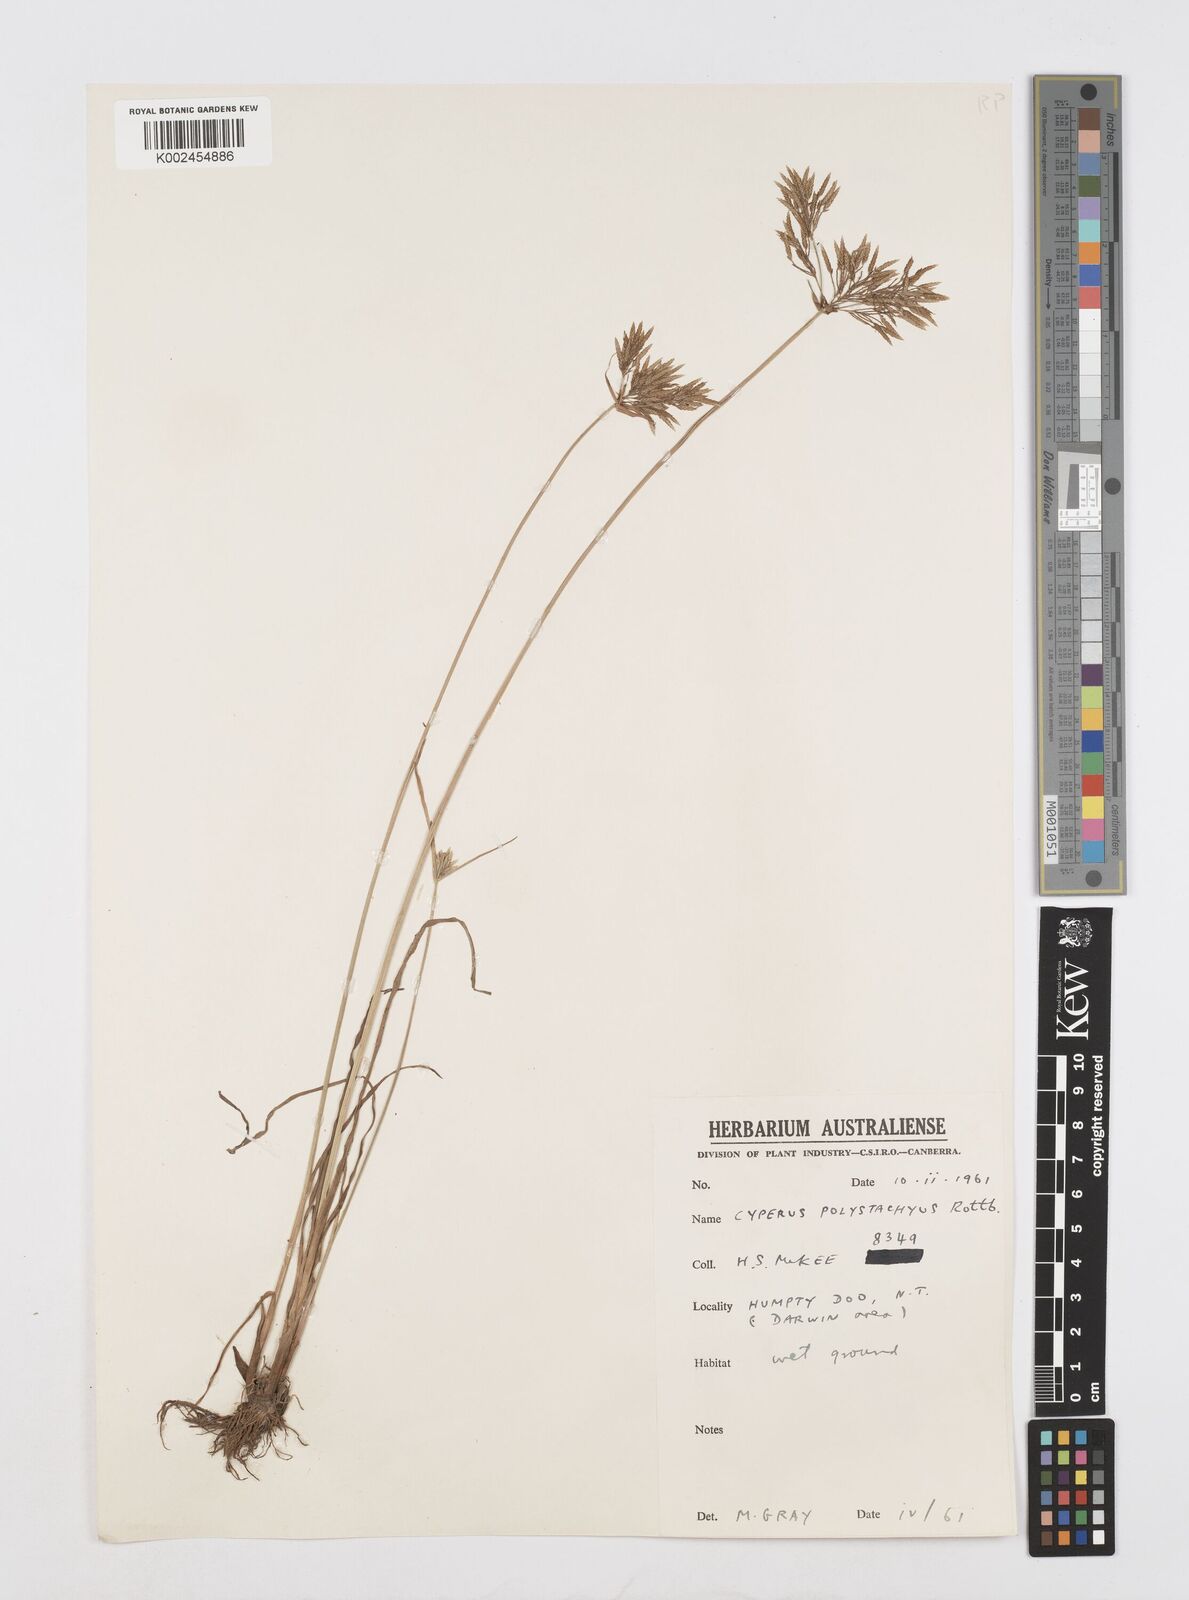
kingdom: Plantae
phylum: Tracheophyta
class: Liliopsida
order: Poales
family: Cyperaceae
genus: Cyperus
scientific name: Cyperus polystachyos
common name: Bunchy flat sedge
